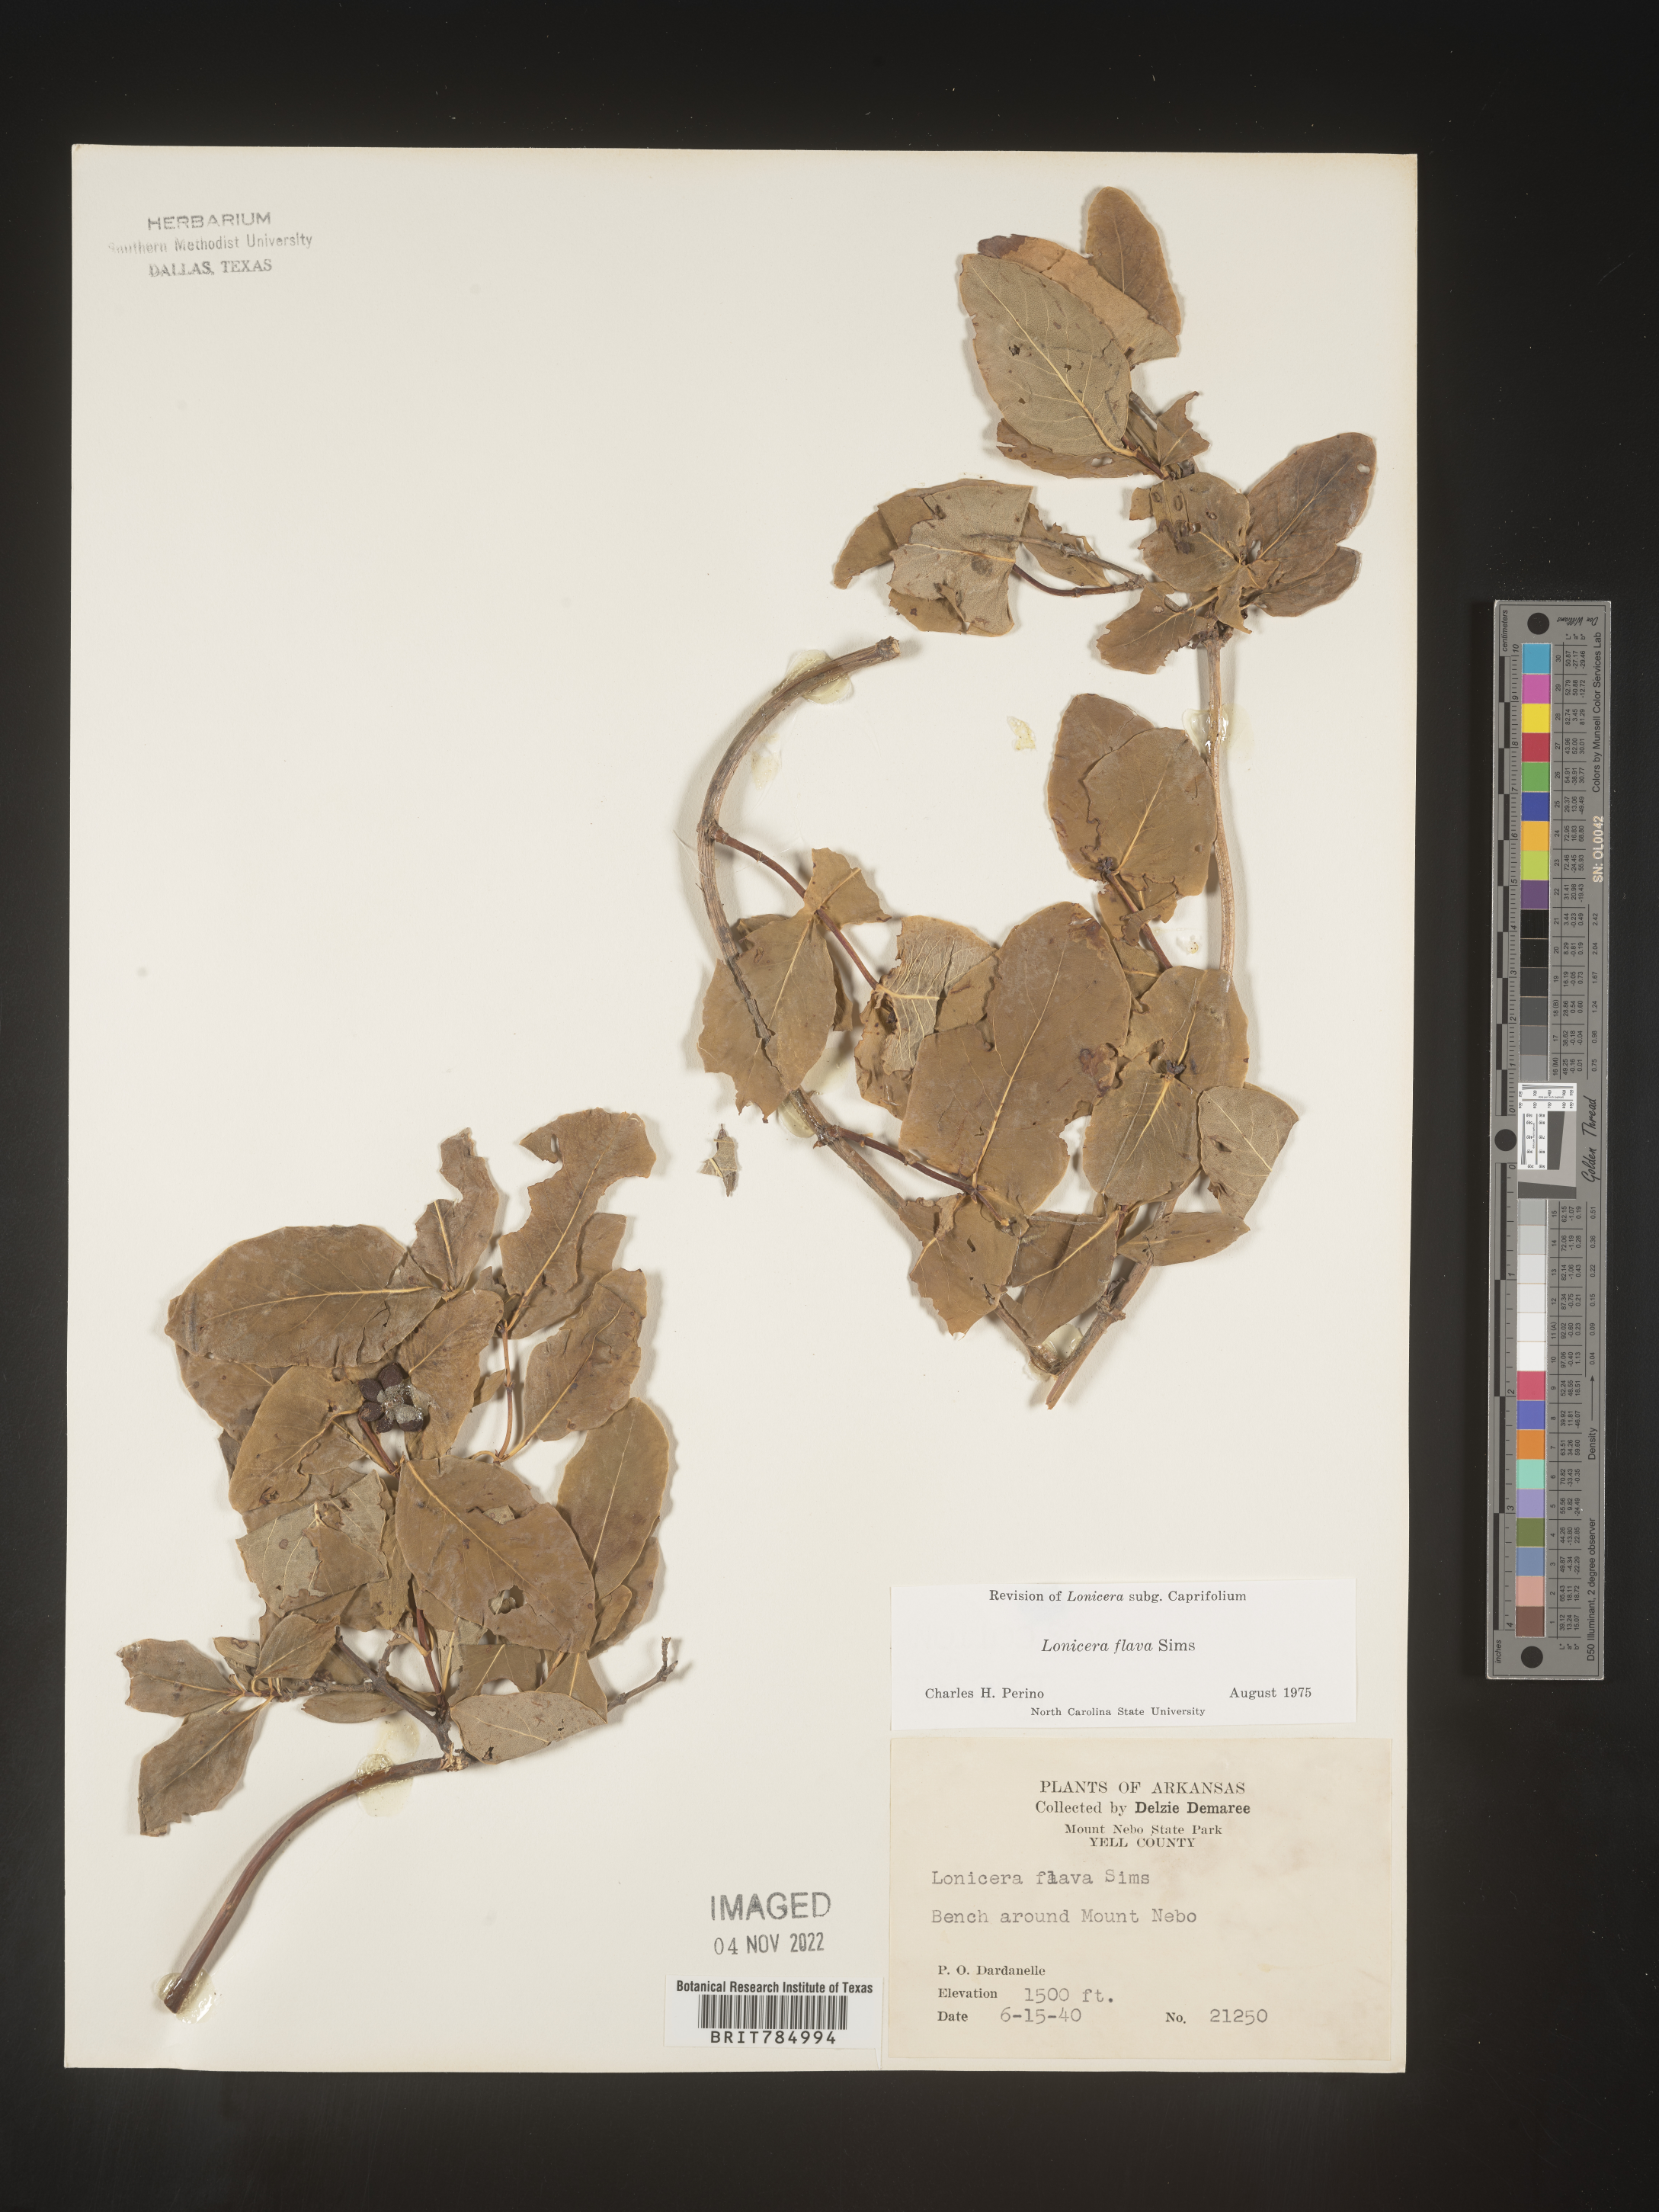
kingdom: Plantae
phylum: Tracheophyta
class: Magnoliopsida
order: Dipsacales
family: Caprifoliaceae
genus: Lonicera
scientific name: Lonicera flava
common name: Yellow honeysuckle
